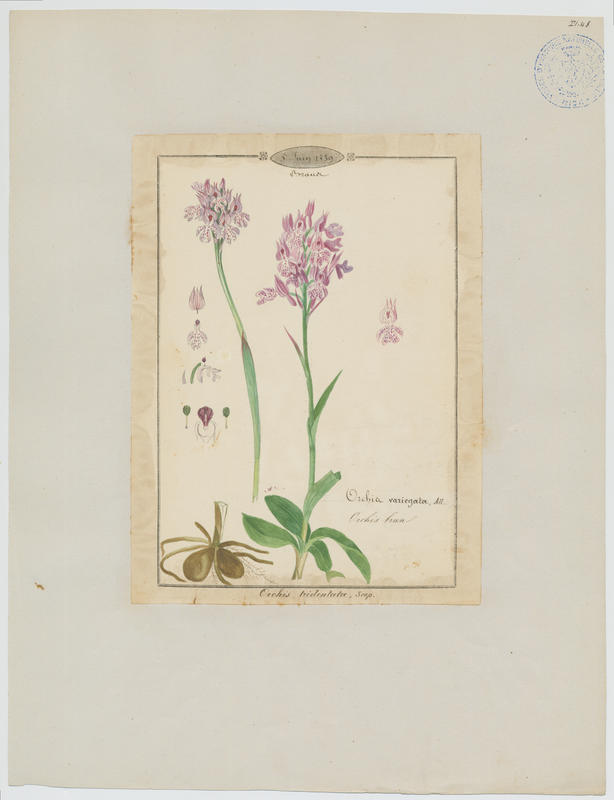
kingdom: Plantae
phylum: Tracheophyta
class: Liliopsida
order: Asparagales
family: Orchidaceae
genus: Neotinea
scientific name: Neotinea tridentata
